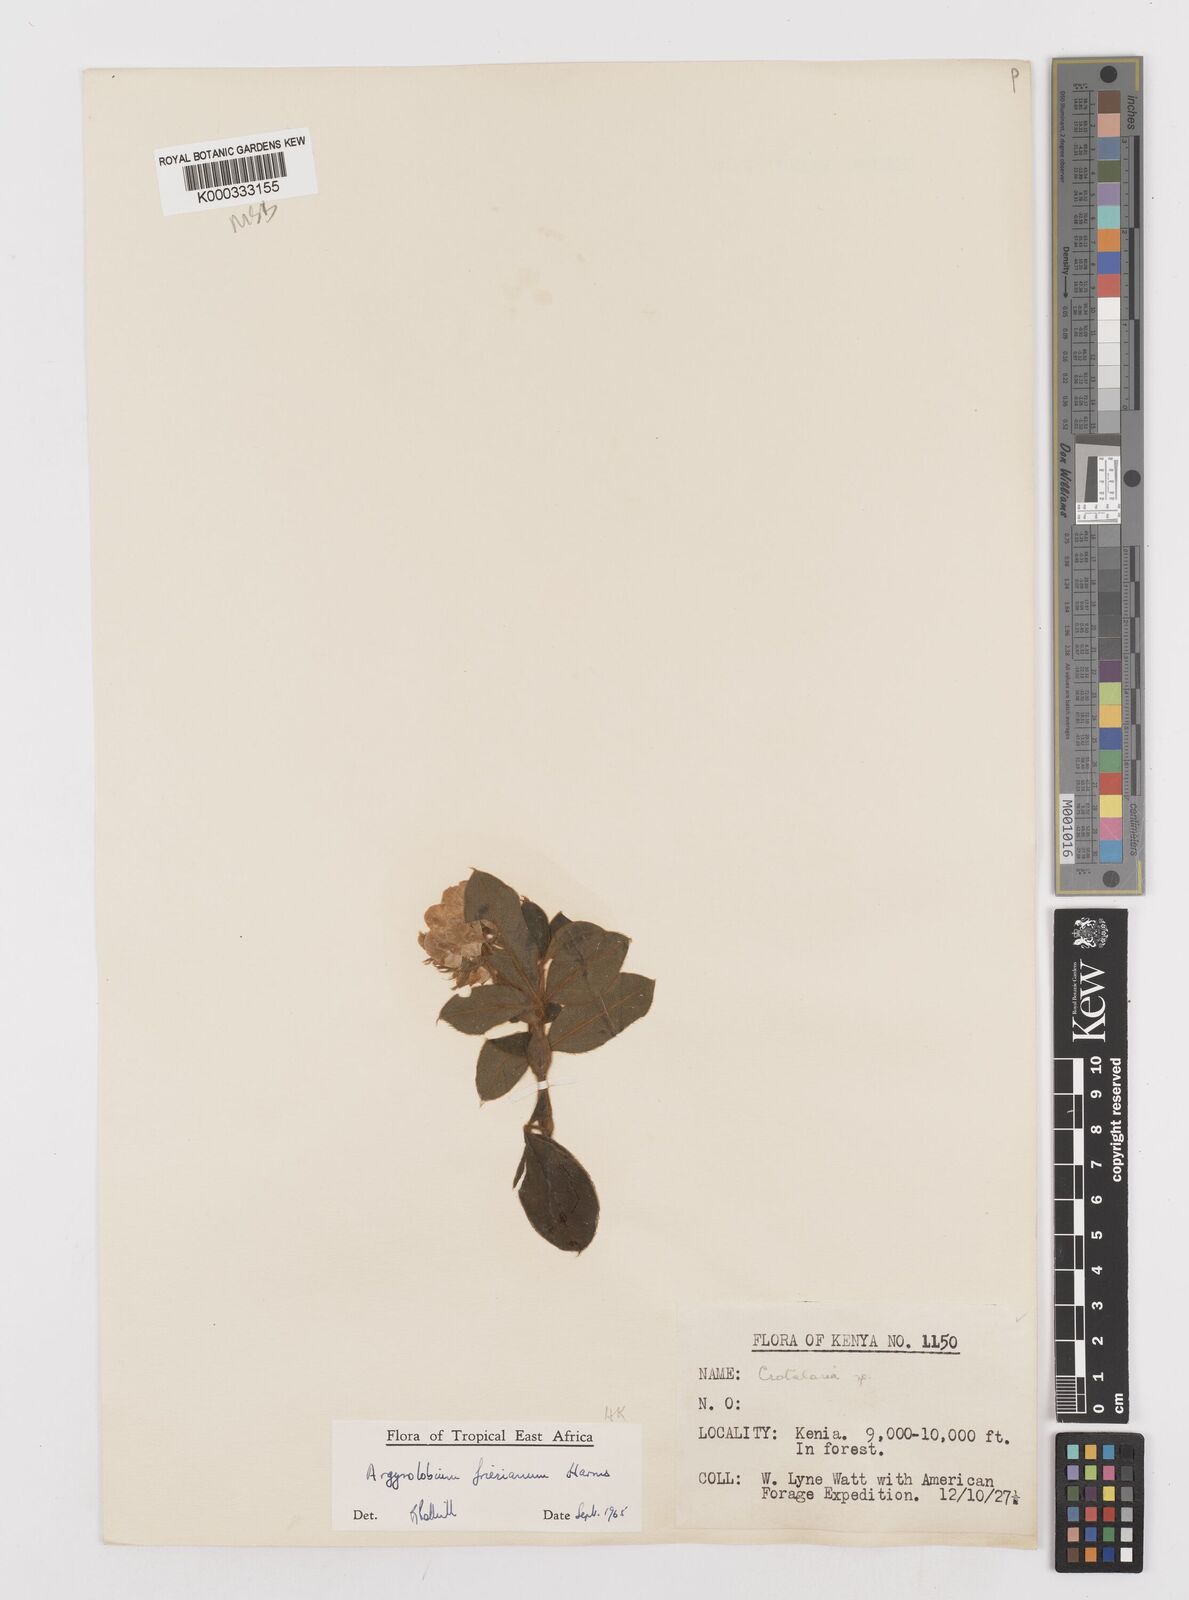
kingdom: Plantae
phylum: Tracheophyta
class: Magnoliopsida
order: Fabales
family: Fabaceae
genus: Argyrolobium
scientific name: Argyrolobium friesianum
